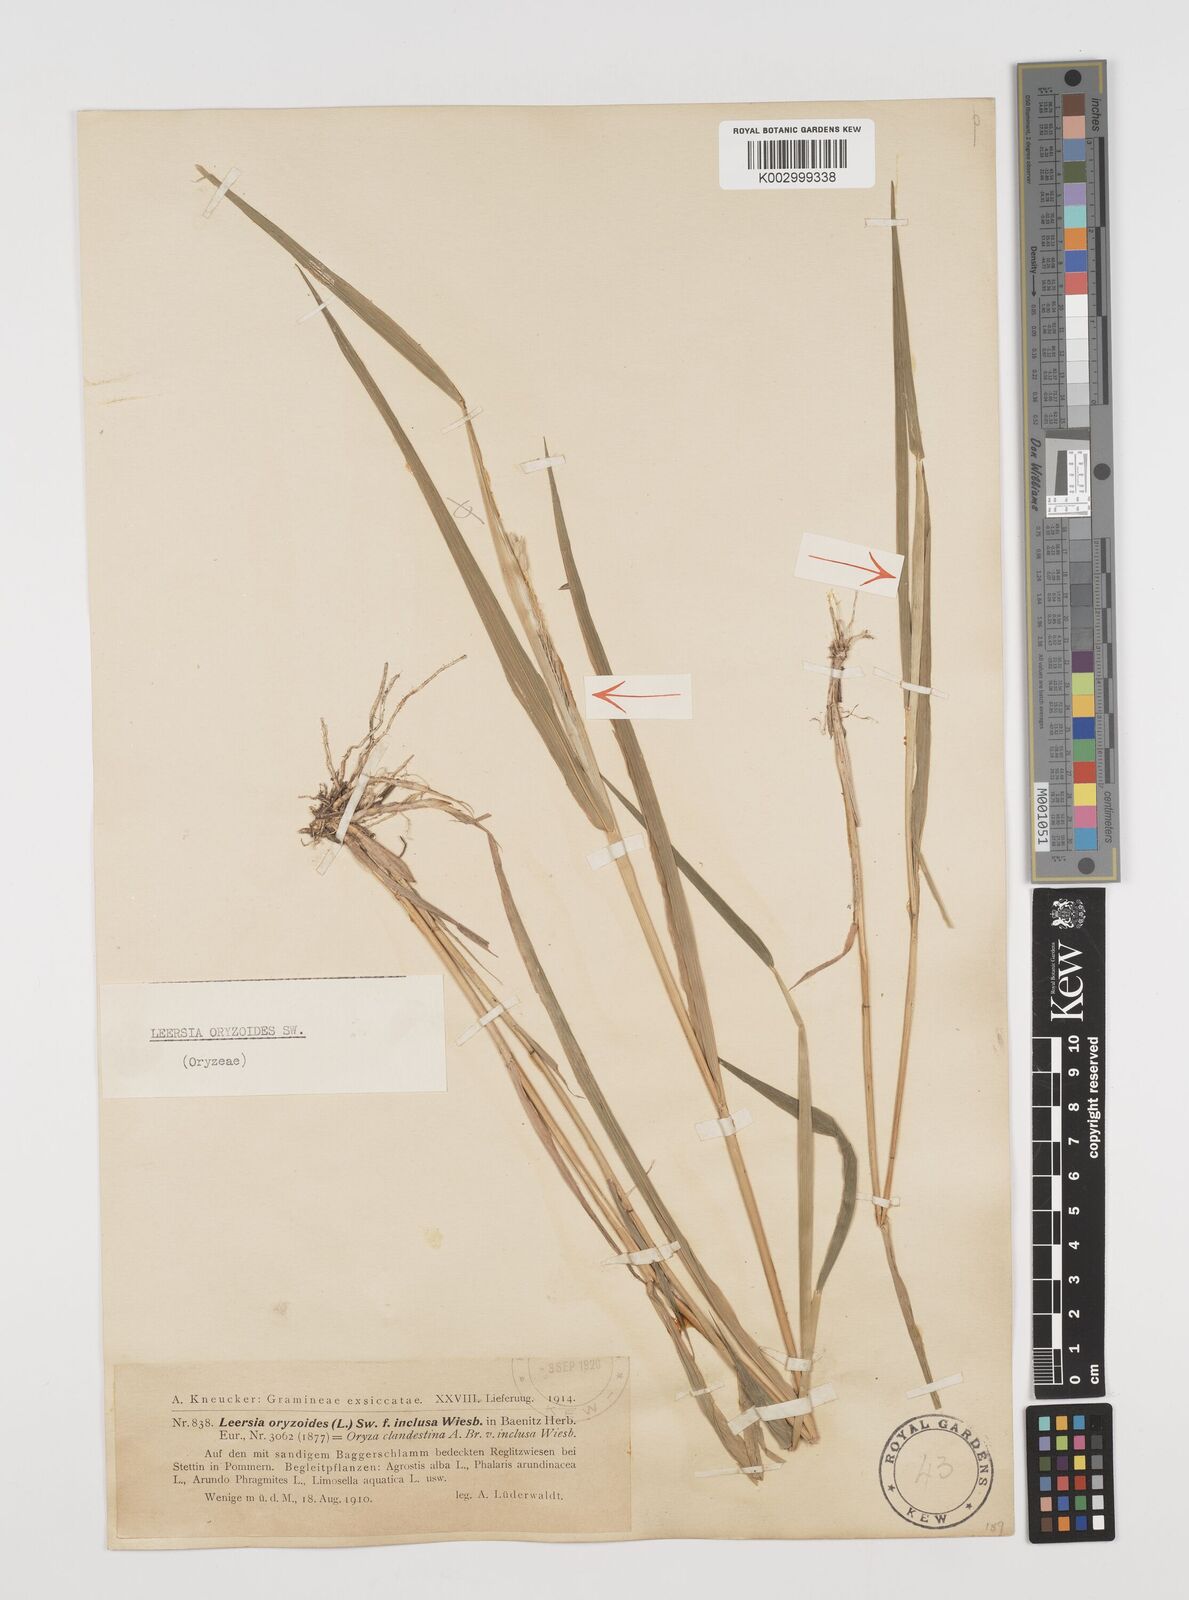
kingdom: Plantae
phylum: Tracheophyta
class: Liliopsida
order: Poales
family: Poaceae
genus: Leersia
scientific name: Leersia oryzoides
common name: Cut-grass
